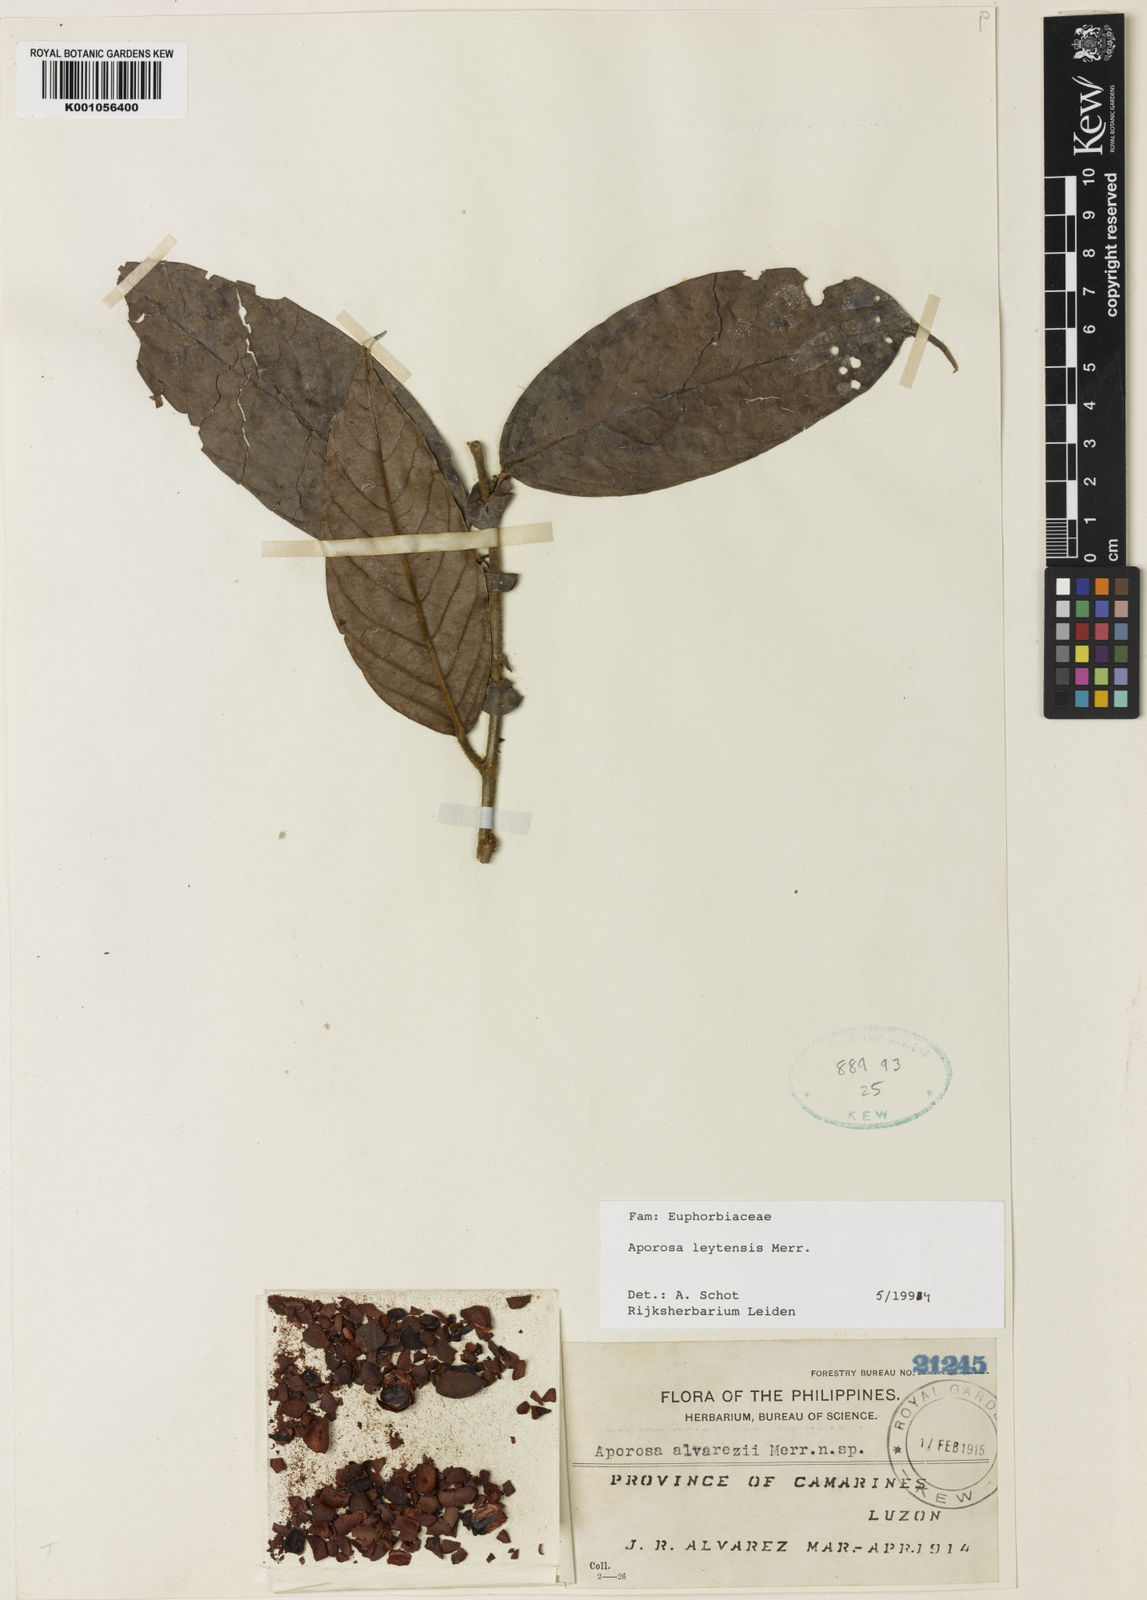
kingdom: Plantae
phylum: Tracheophyta
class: Magnoliopsida
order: Malpighiales
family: Phyllanthaceae
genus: Aporosa
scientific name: Aporosa leytensis
